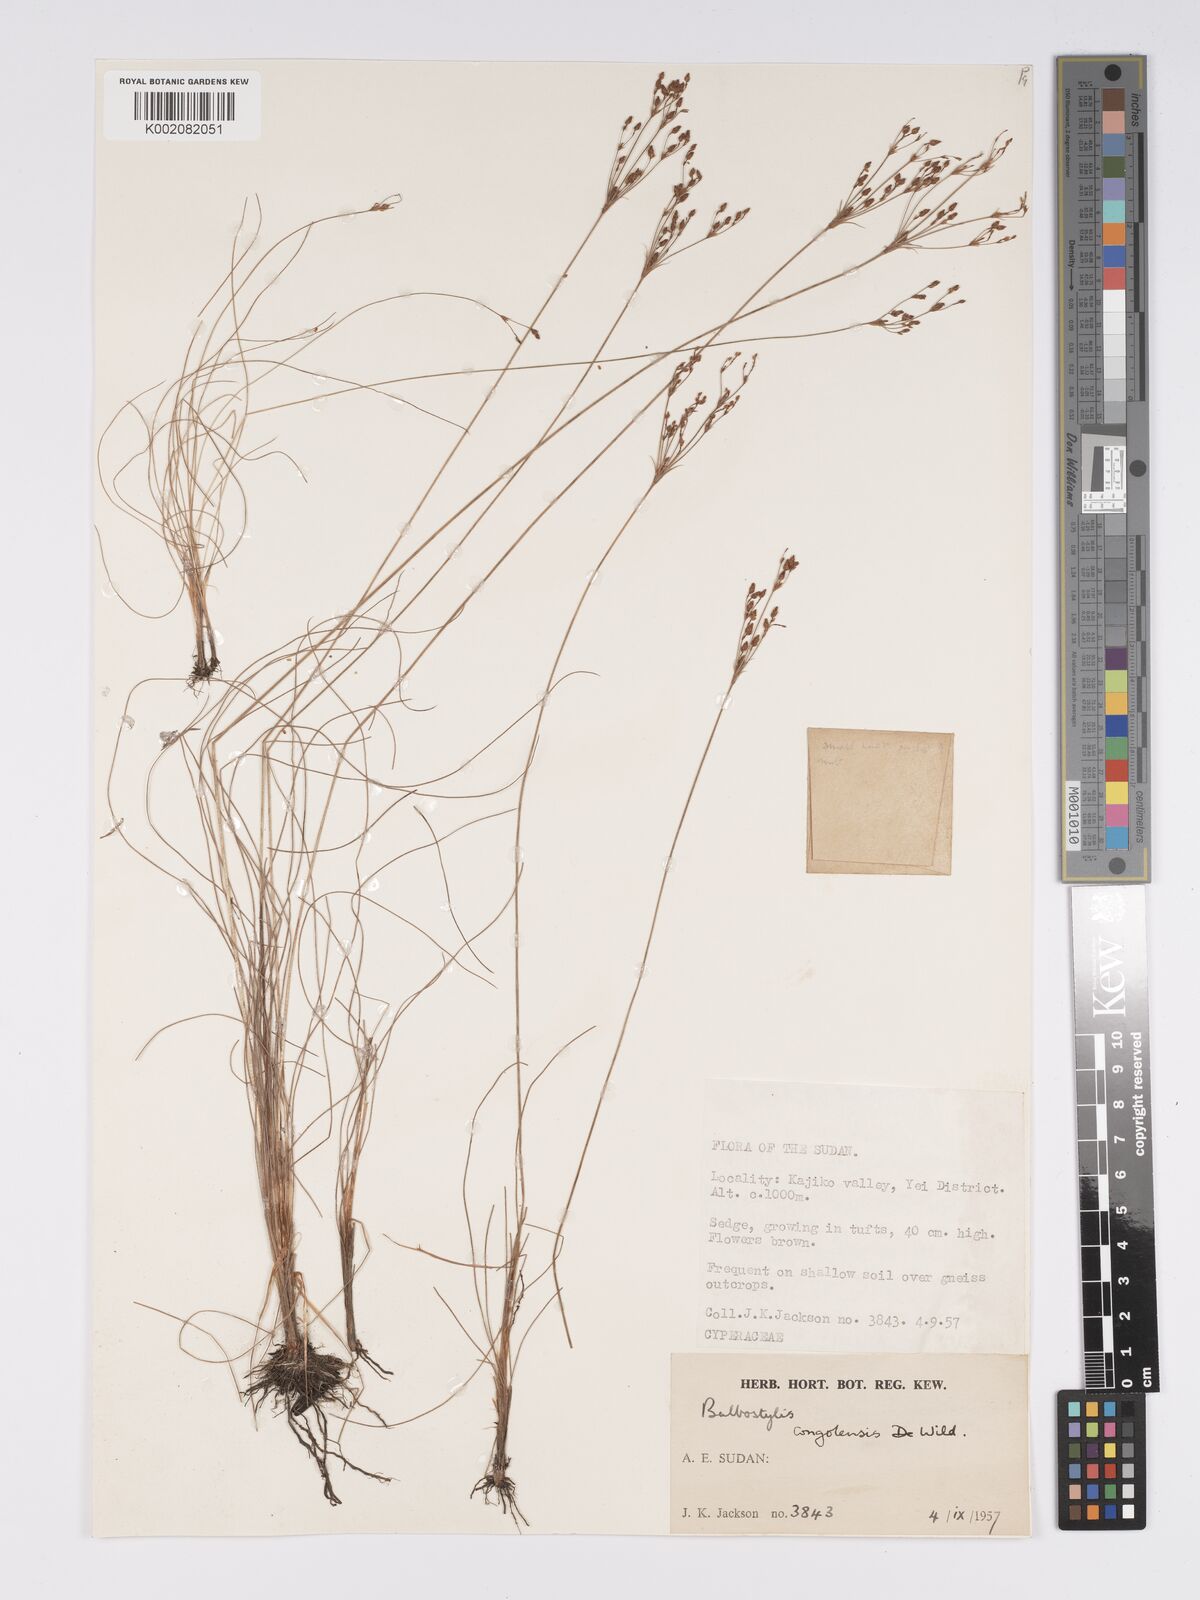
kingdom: Plantae
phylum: Tracheophyta
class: Liliopsida
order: Poales
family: Cyperaceae
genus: Bulbostylis
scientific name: Bulbostylis congolensis
